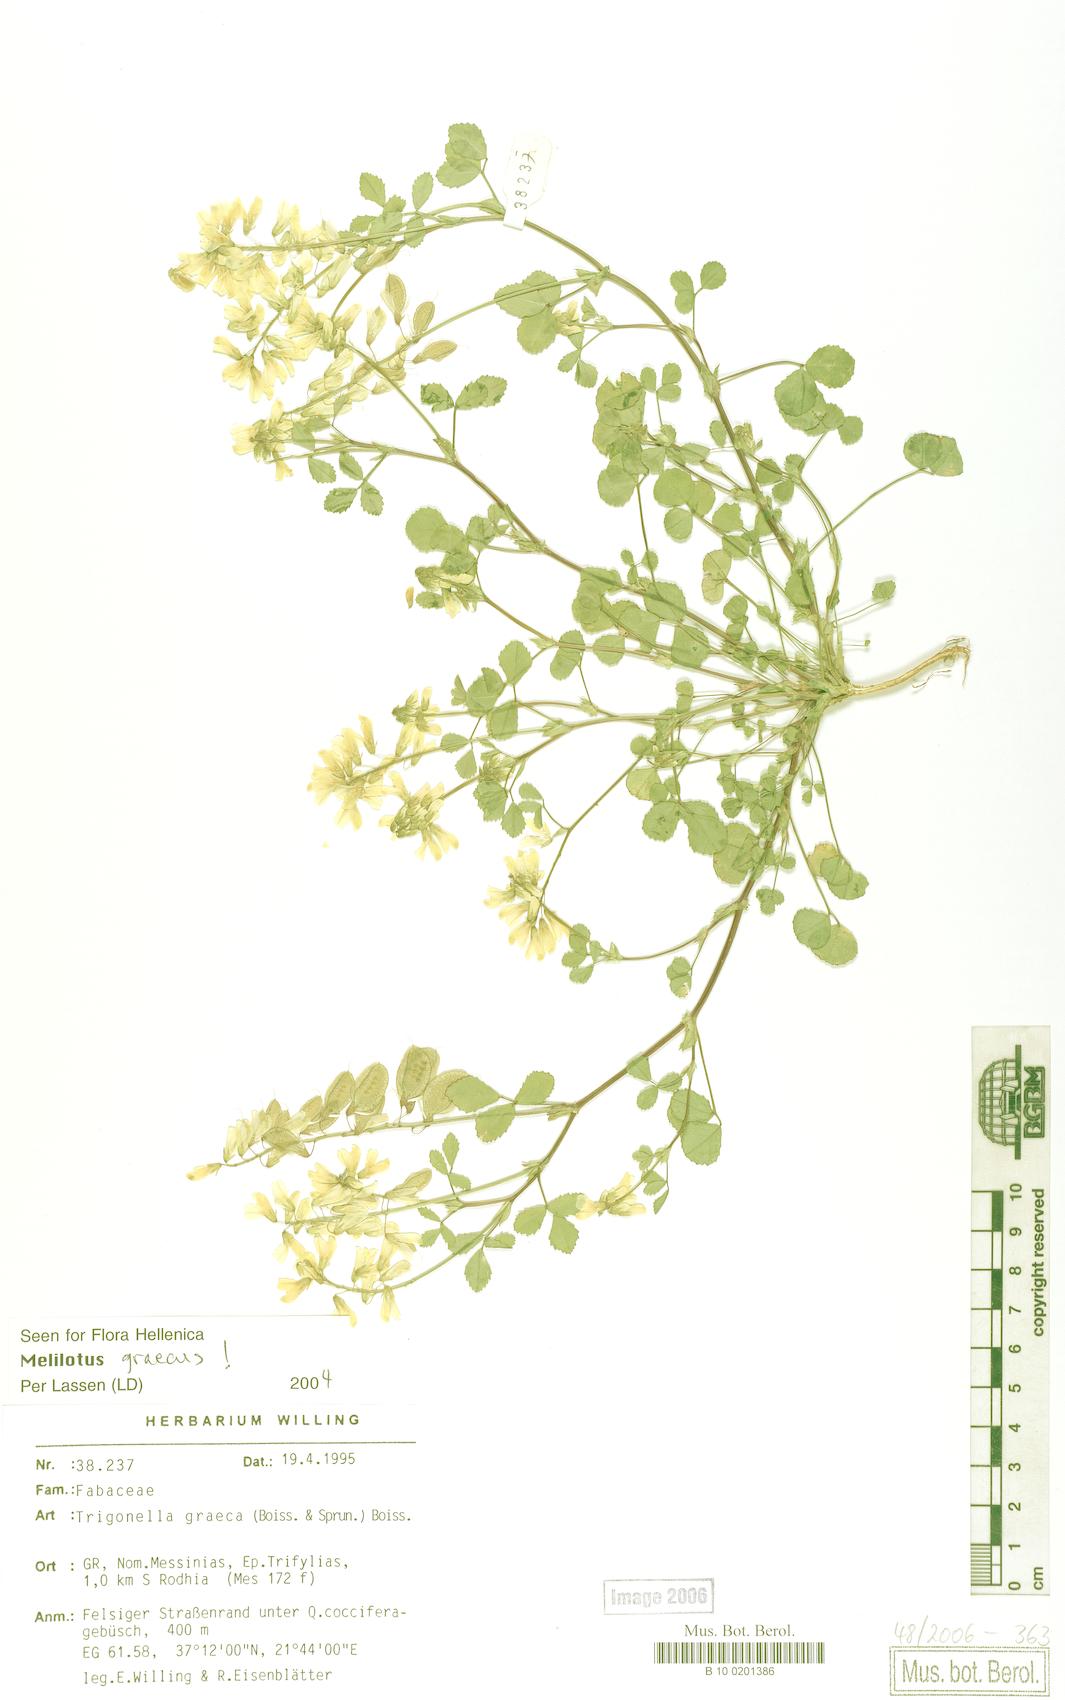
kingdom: Plantae
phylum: Tracheophyta
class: Magnoliopsida
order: Fabales
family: Fabaceae
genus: Trigonella
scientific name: Trigonella graeca
